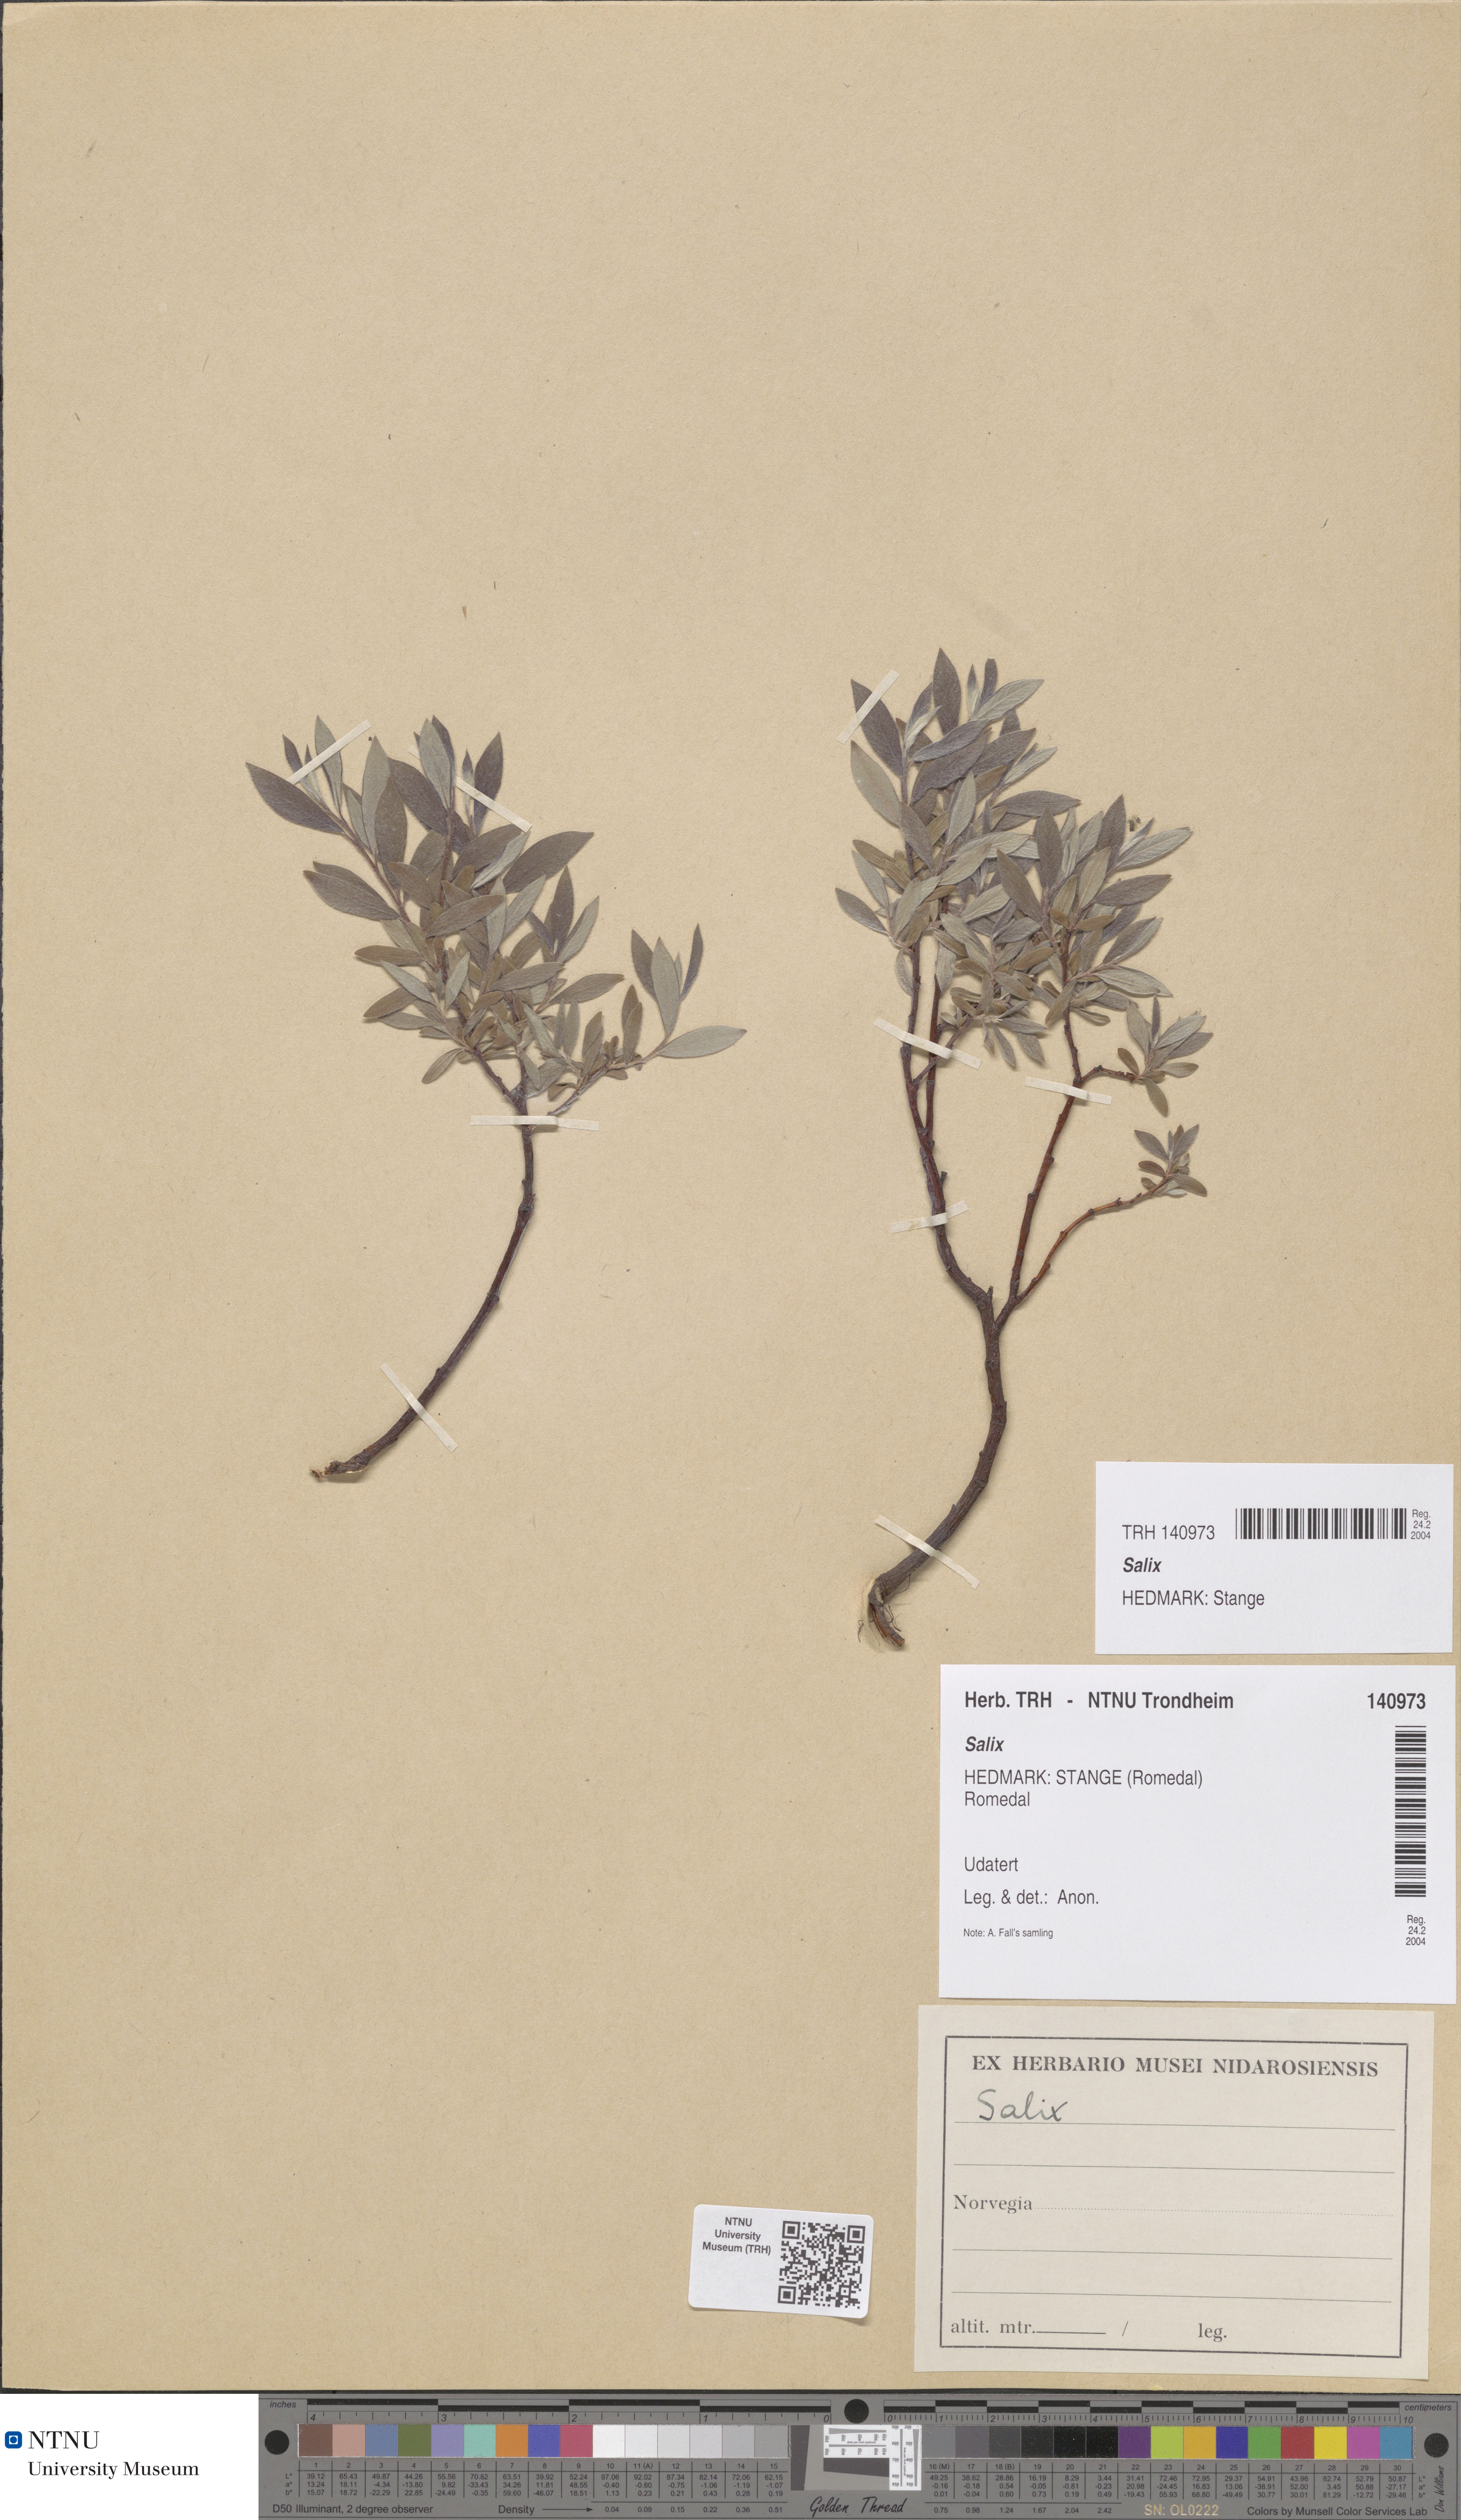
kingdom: Plantae
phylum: Tracheophyta
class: Magnoliopsida
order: Malpighiales
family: Salicaceae
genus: Salix
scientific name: Salix
